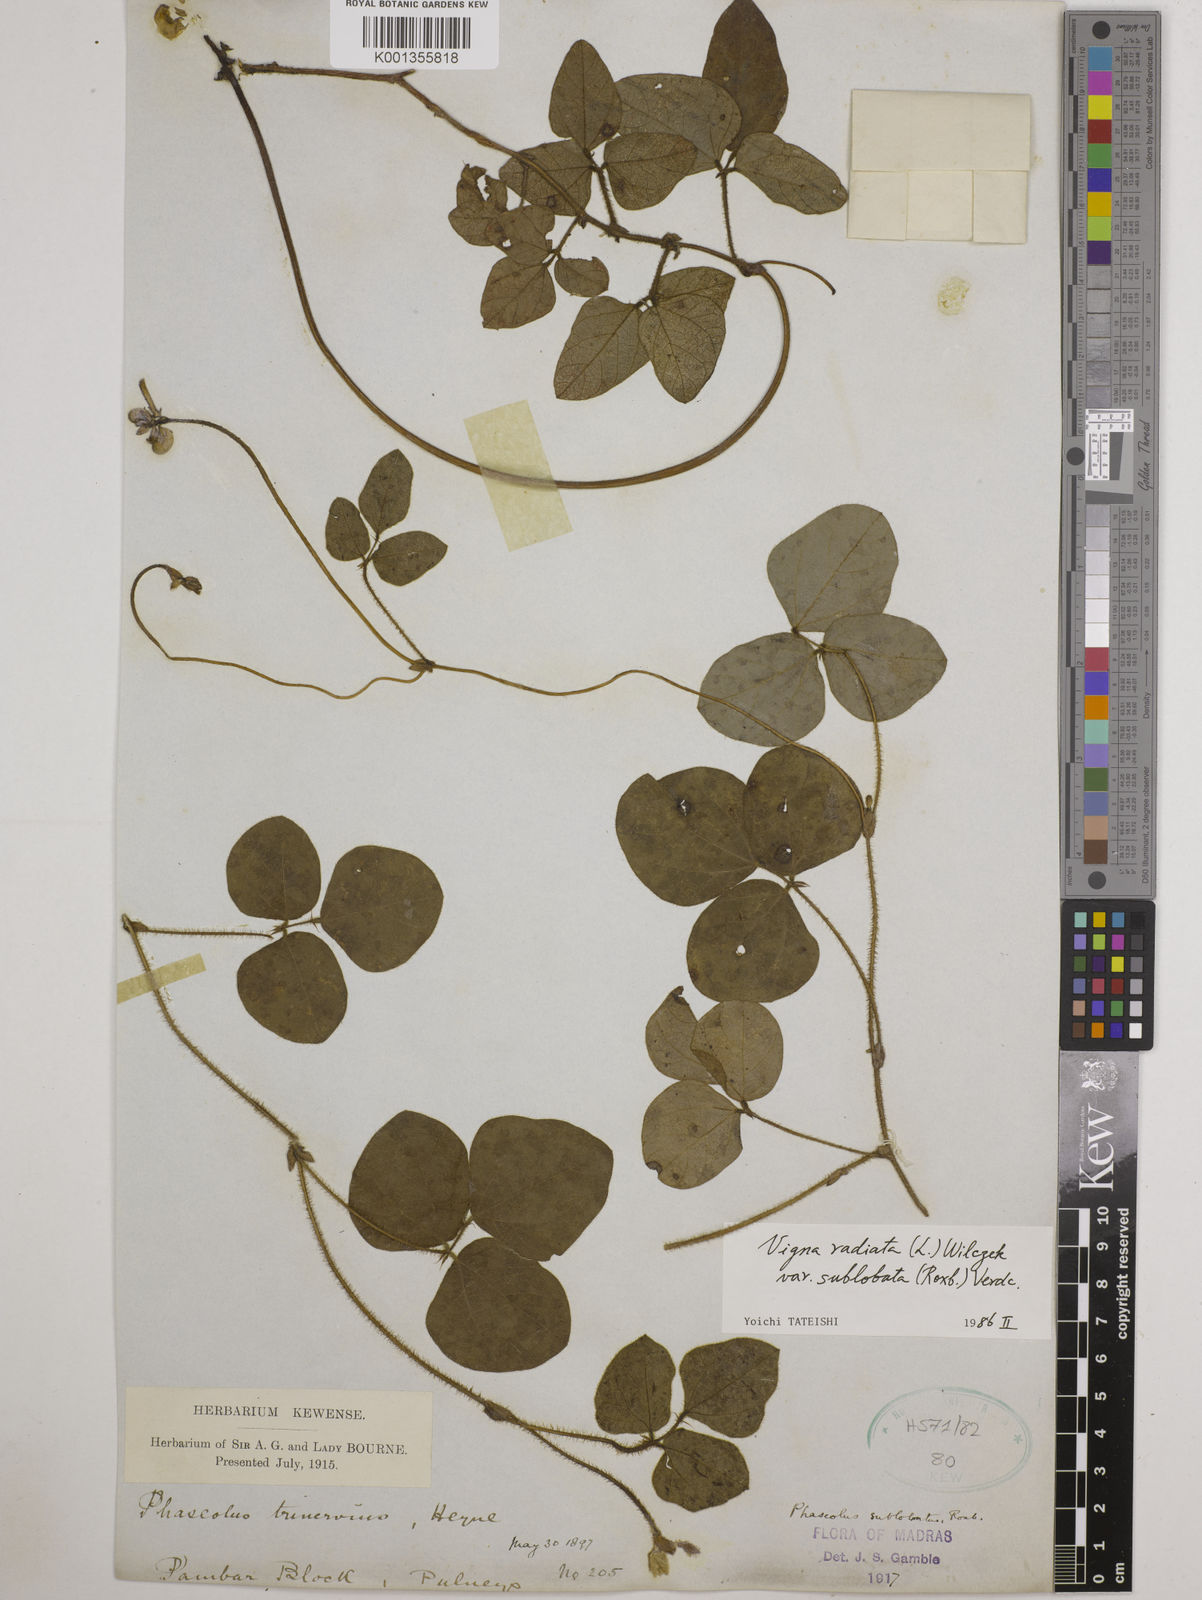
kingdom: Plantae
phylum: Tracheophyta
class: Magnoliopsida
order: Fabales
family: Fabaceae
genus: Vigna
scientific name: Vigna radiata
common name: Mung-bean
